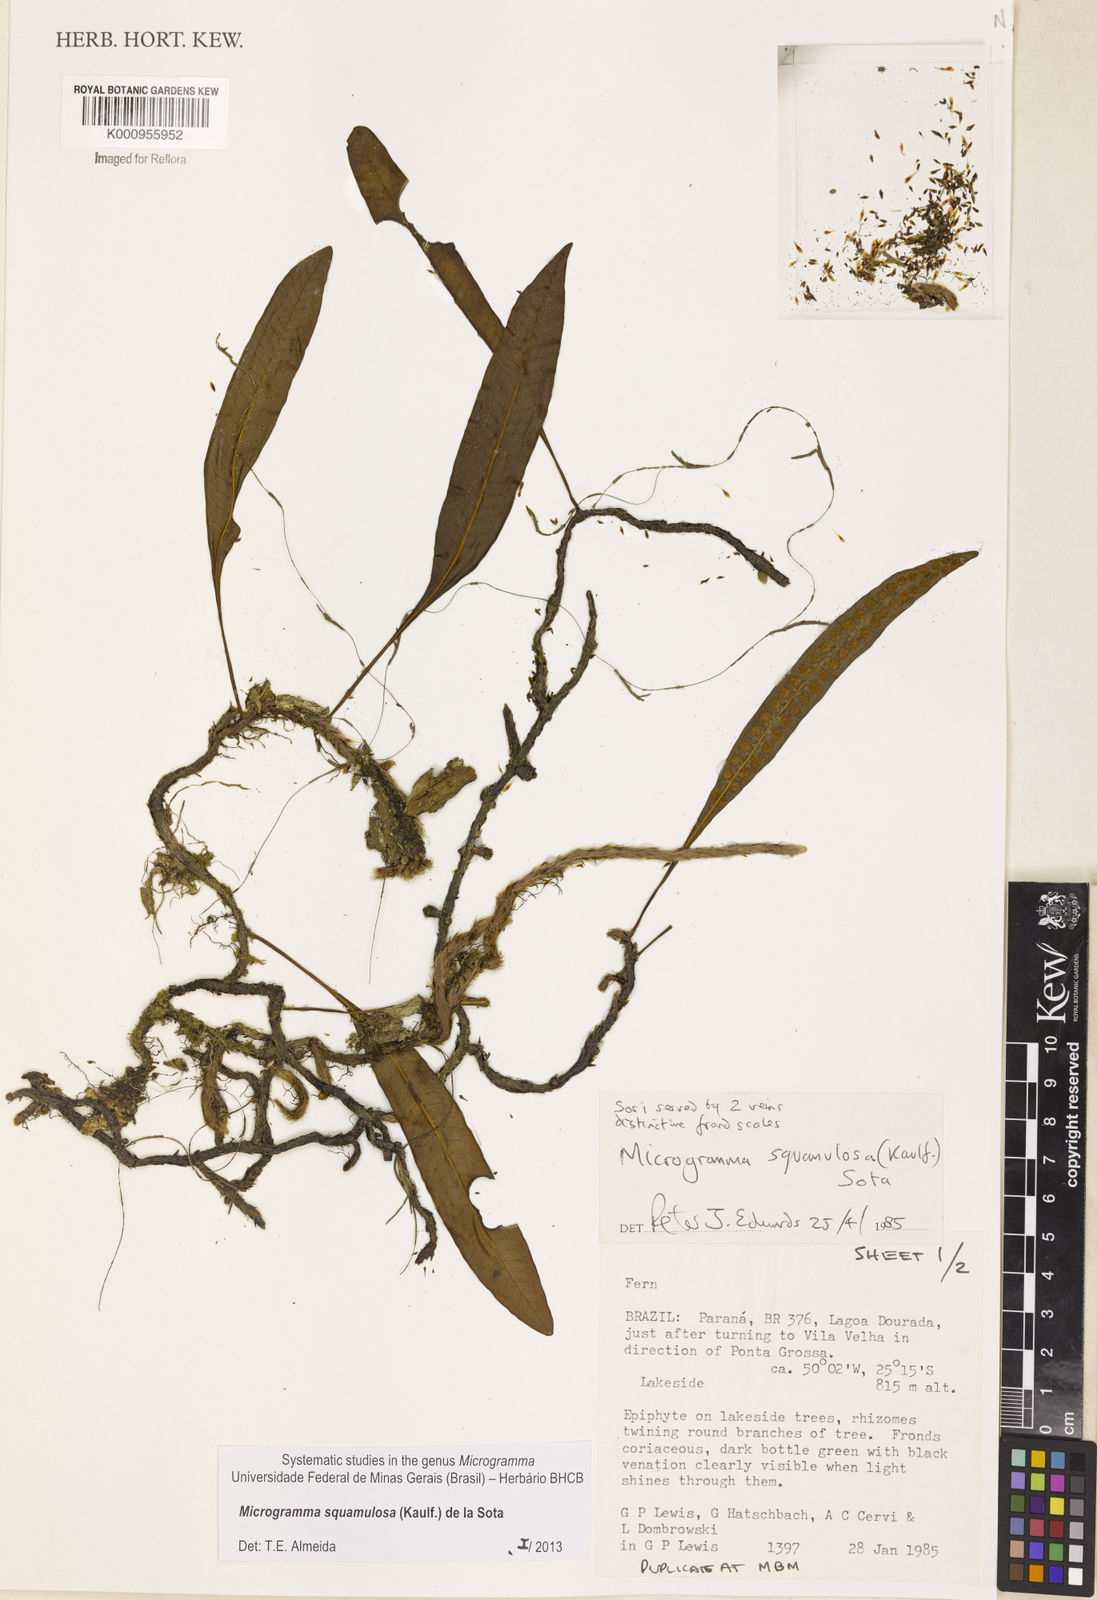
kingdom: Plantae
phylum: Tracheophyta
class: Polypodiopsida
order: Polypodiales
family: Polypodiaceae
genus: Microgramma
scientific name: Microgramma squamulosa
